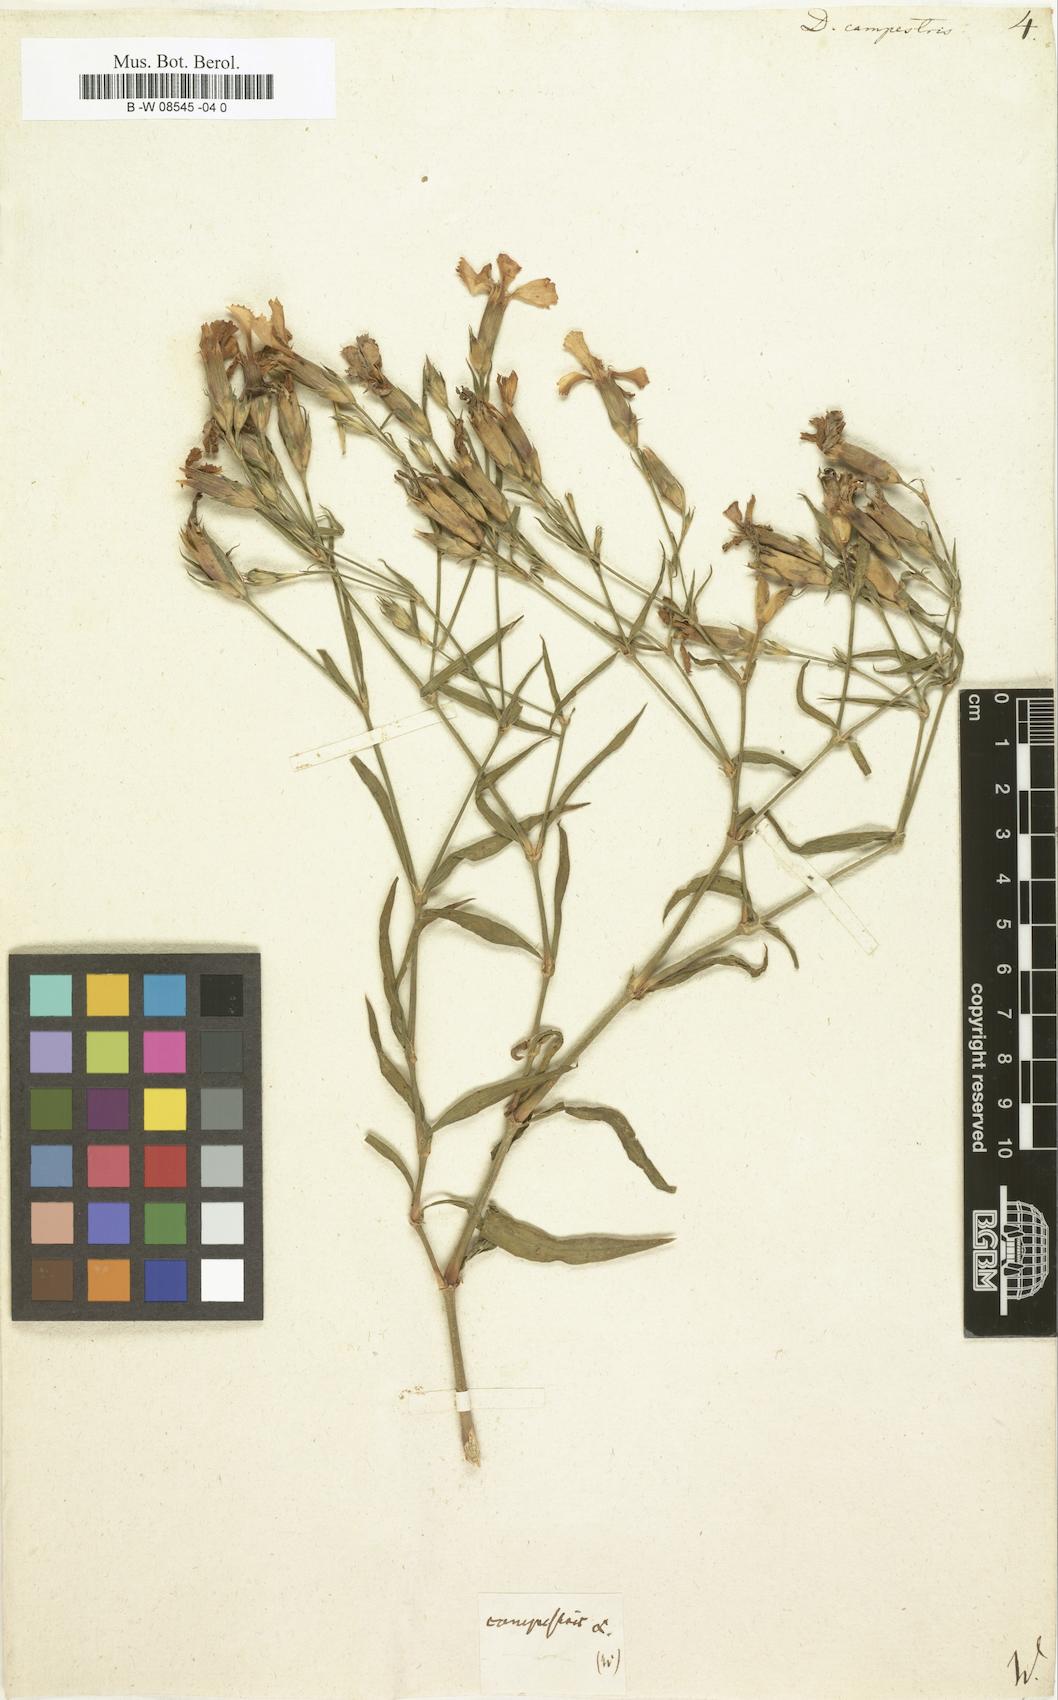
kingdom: Plantae
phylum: Tracheophyta
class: Magnoliopsida
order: Caryophyllales
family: Caryophyllaceae
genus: Dianthus
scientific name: Dianthus campestris
